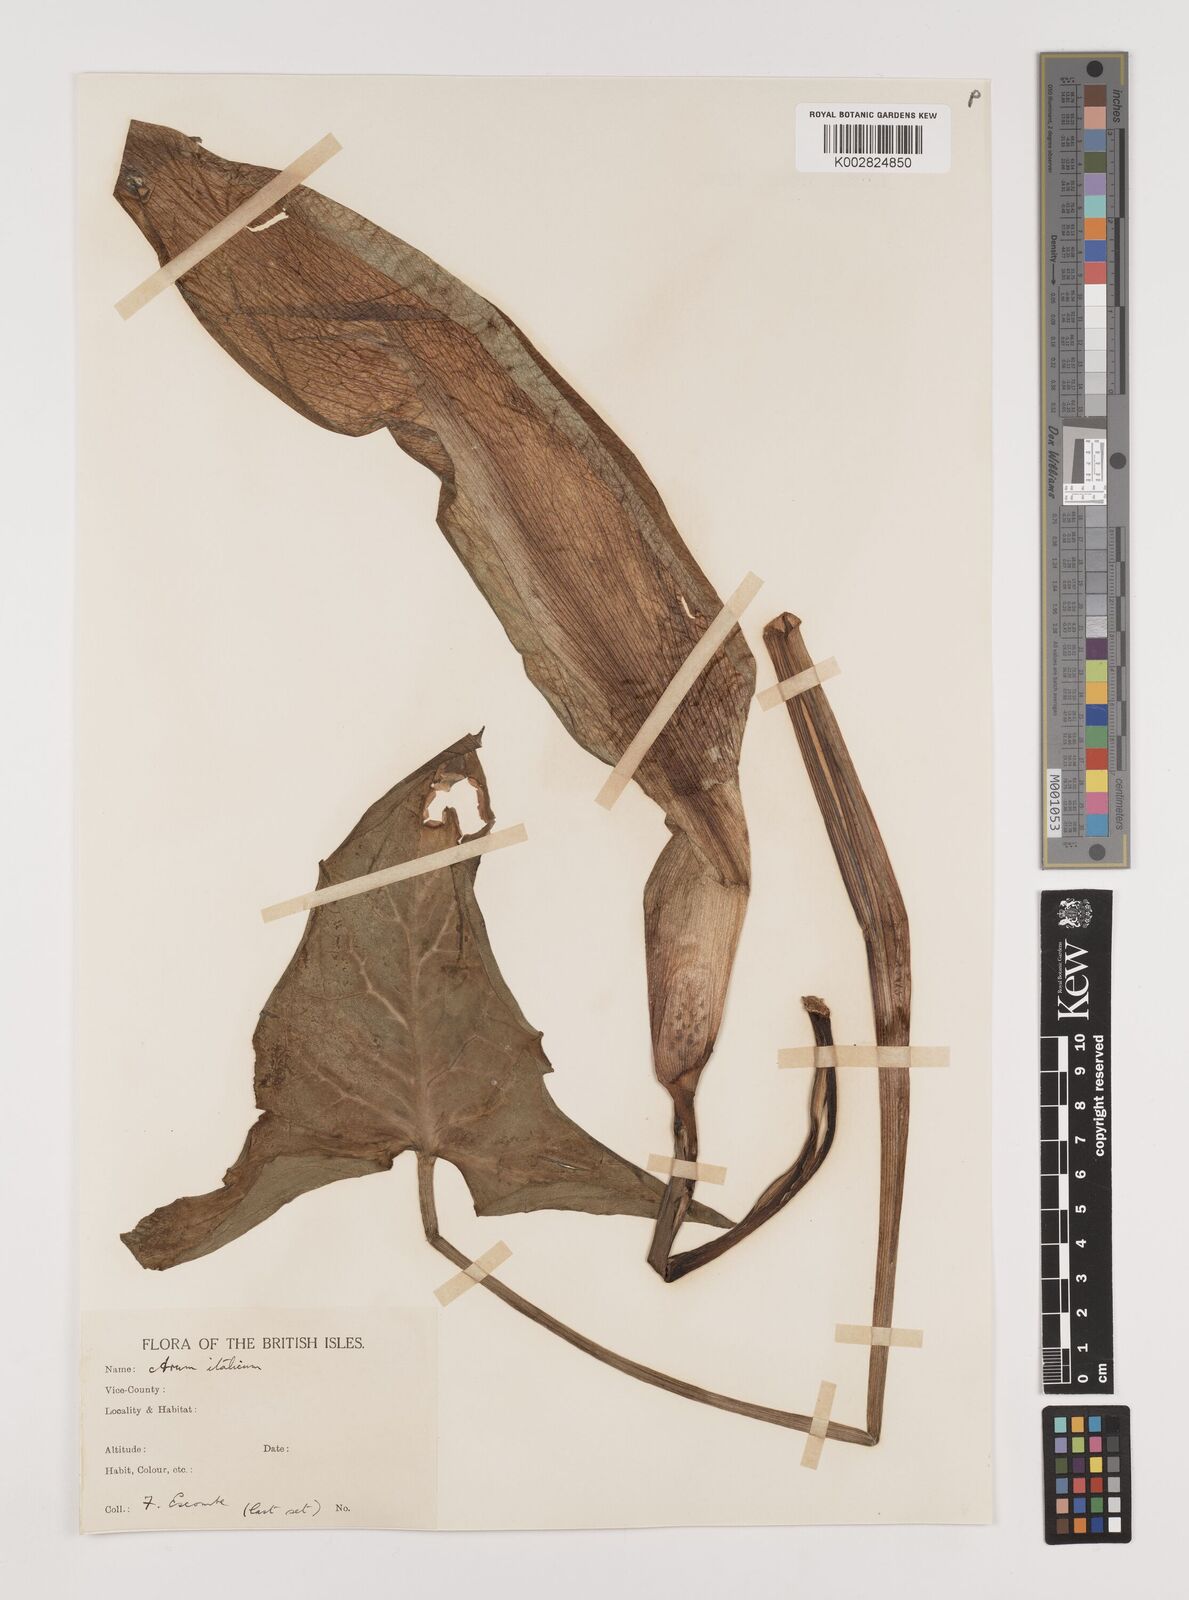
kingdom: Plantae
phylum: Tracheophyta
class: Liliopsida
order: Alismatales
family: Araceae
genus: Arum
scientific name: Arum italicum
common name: Italian lords-and-ladies
